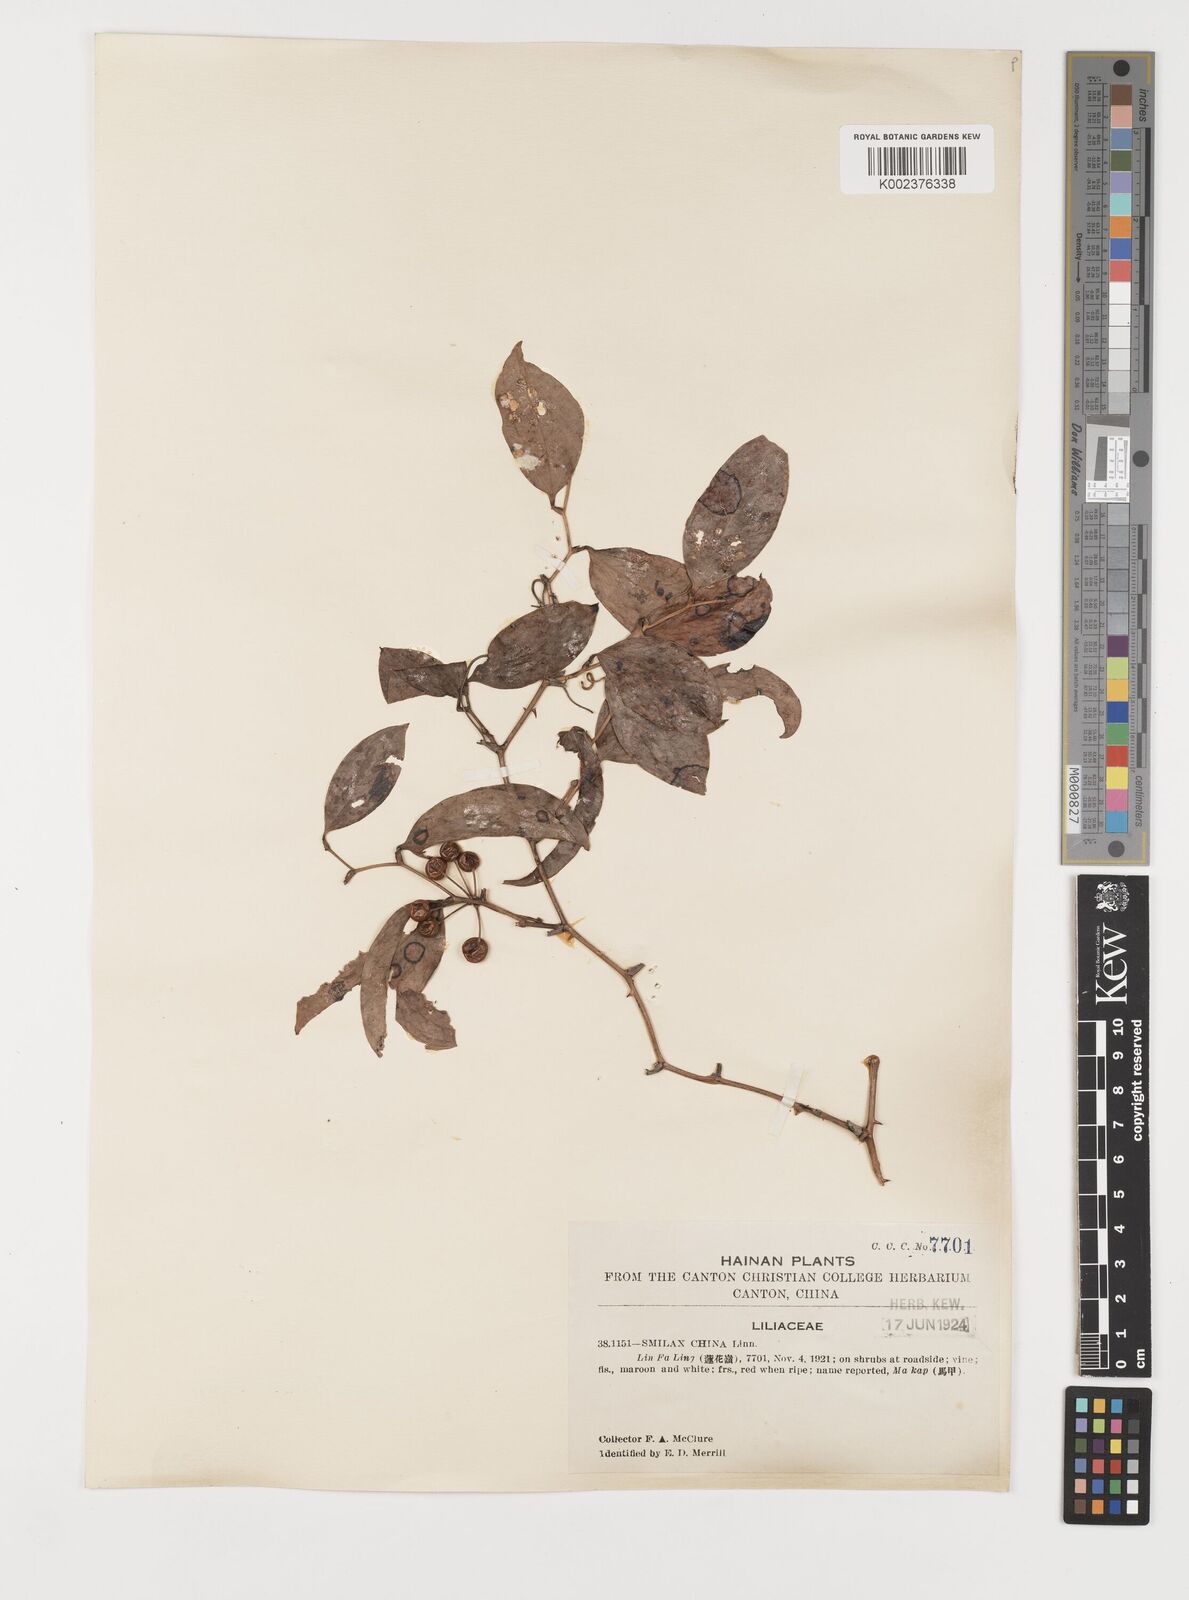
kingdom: Plantae
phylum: Tracheophyta
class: Liliopsida
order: Liliales
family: Smilacaceae
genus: Smilax
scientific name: Smilax china
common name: Chinaroot
